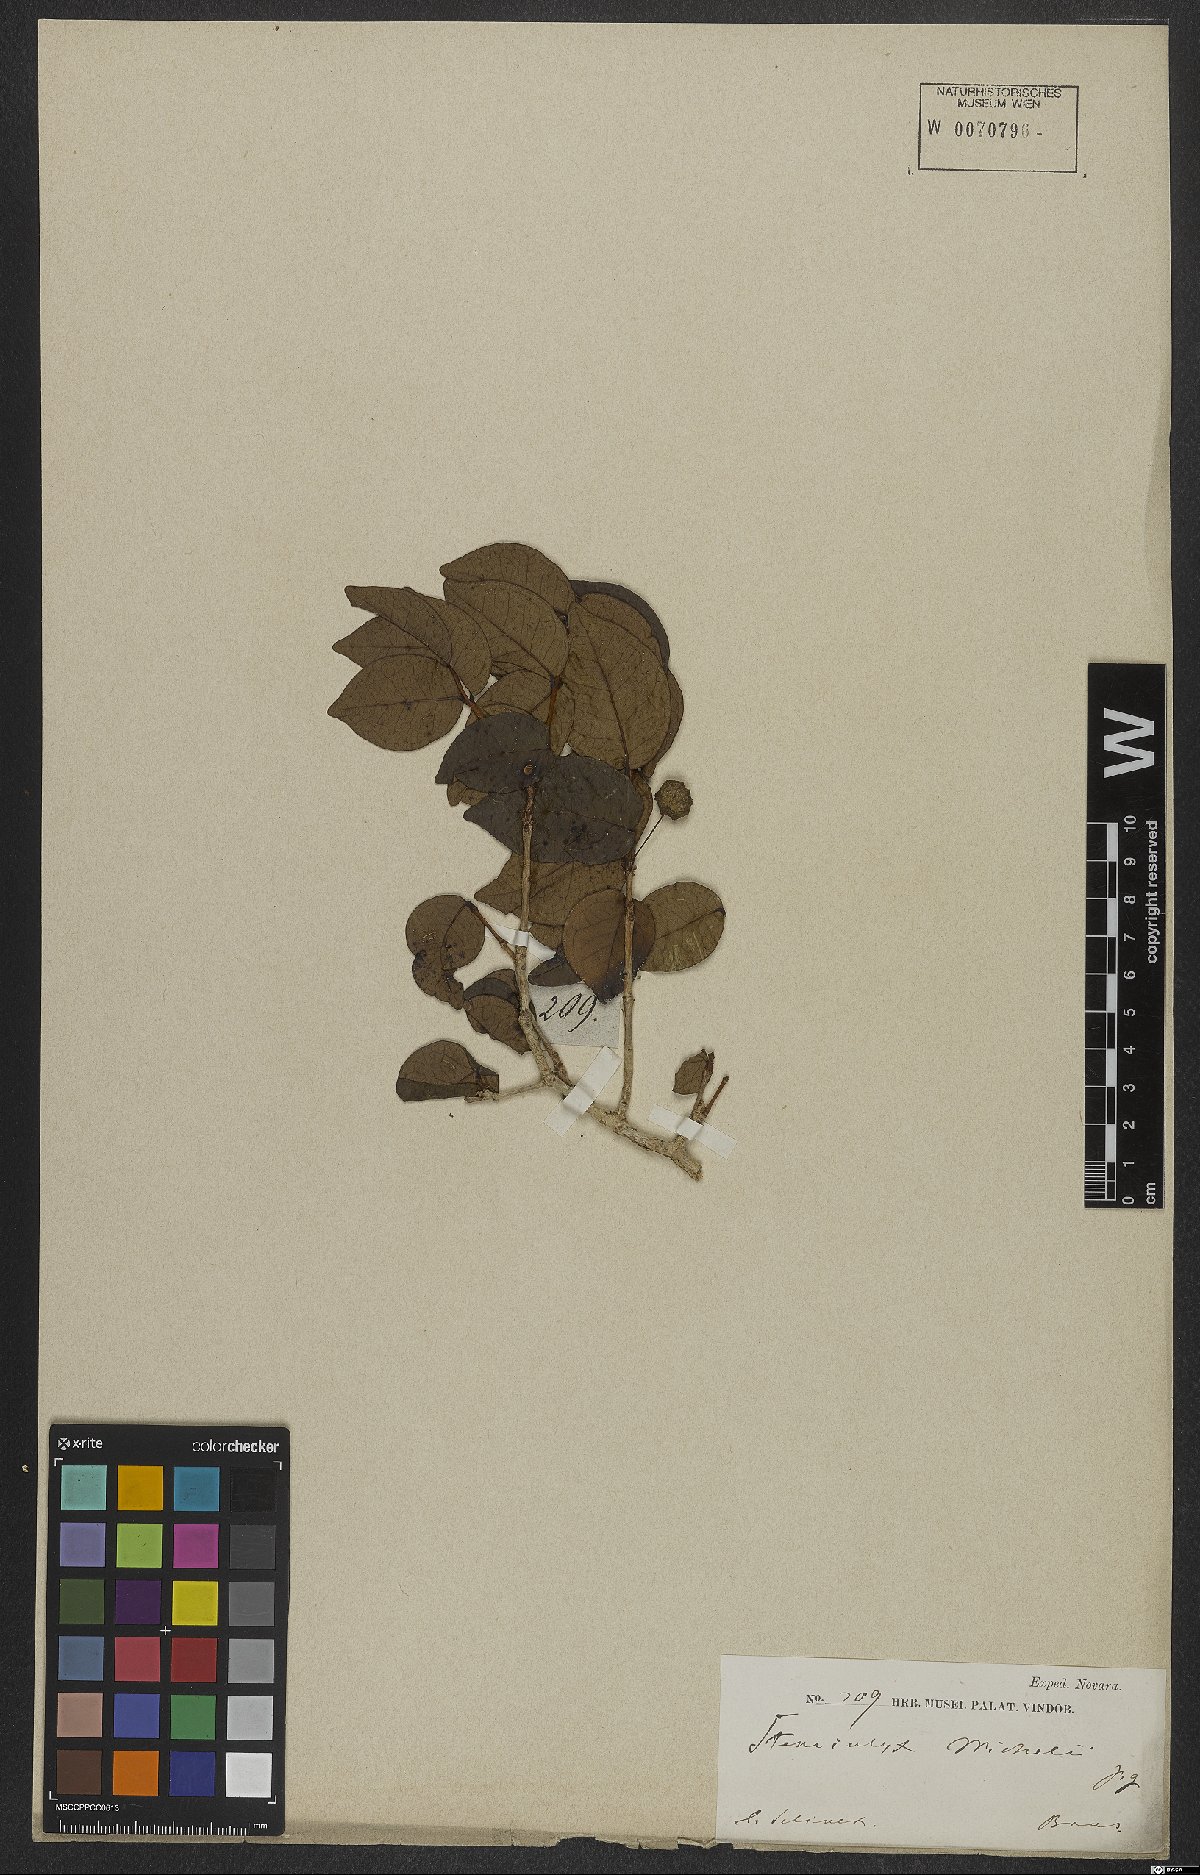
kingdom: Plantae
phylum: Tracheophyta
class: Magnoliopsida
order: Myrtales
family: Myrtaceae
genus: Eugenia
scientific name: Eugenia uniflora
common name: Surinam cherry
